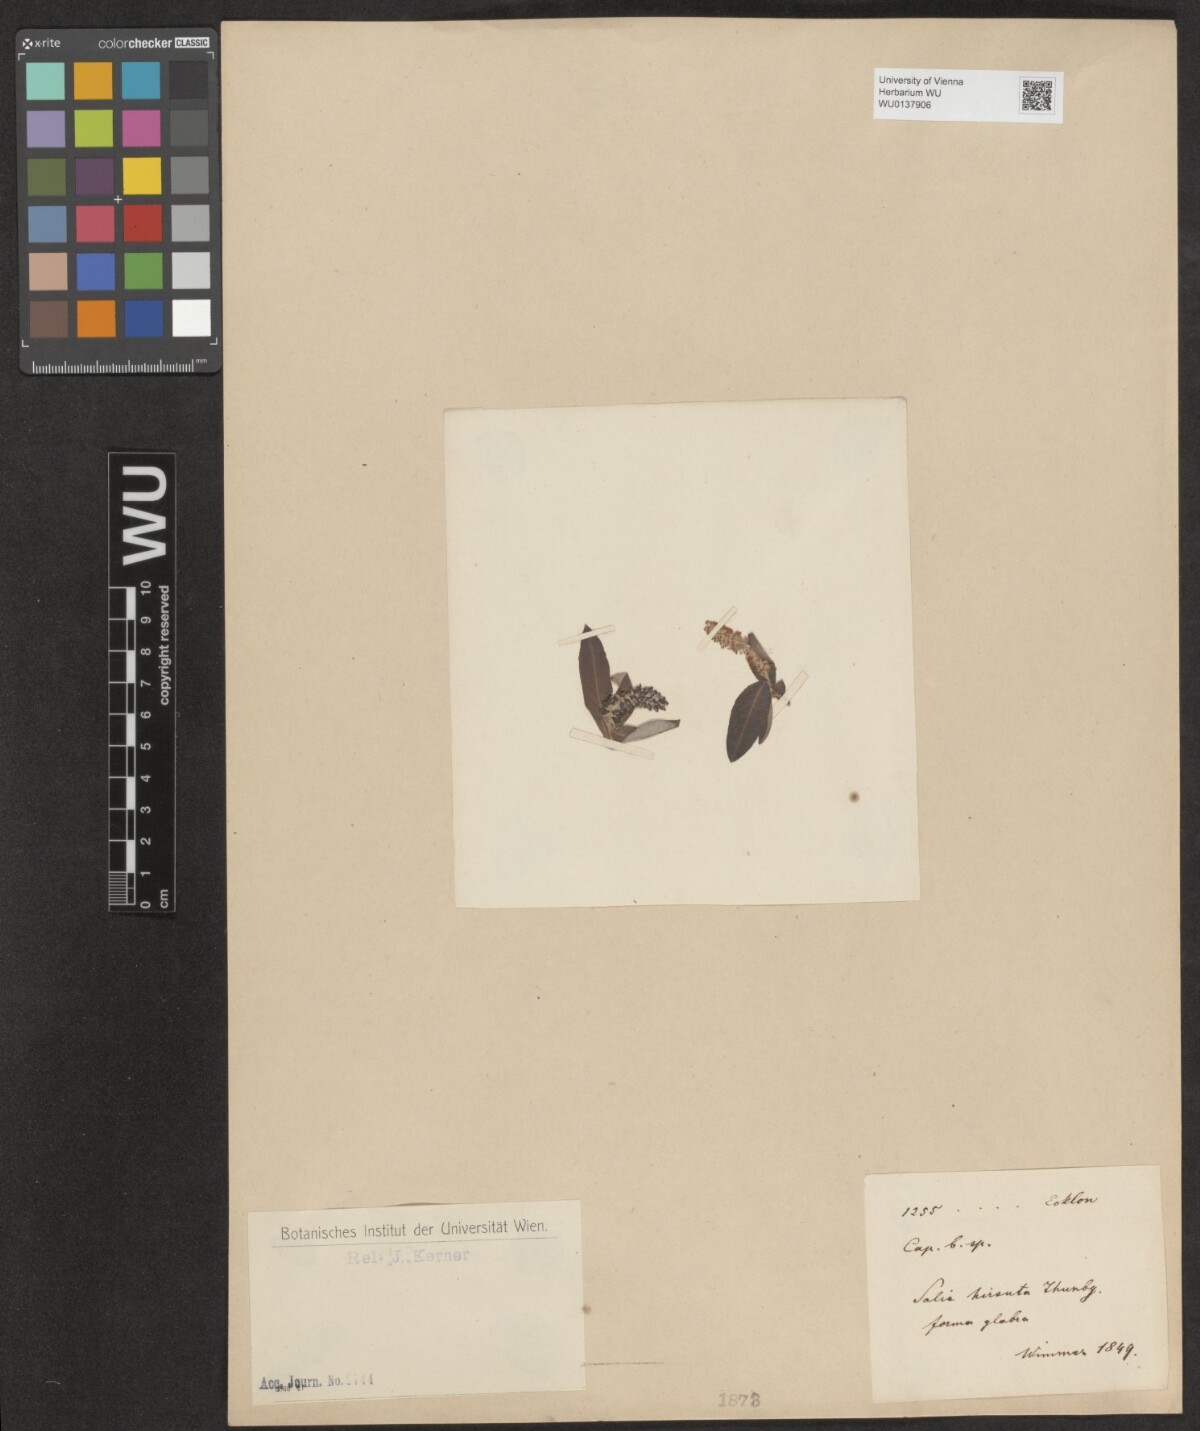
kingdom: Plantae
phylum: Tracheophyta
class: Magnoliopsida
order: Malpighiales
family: Salicaceae
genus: Salix
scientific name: Salix mucronata
